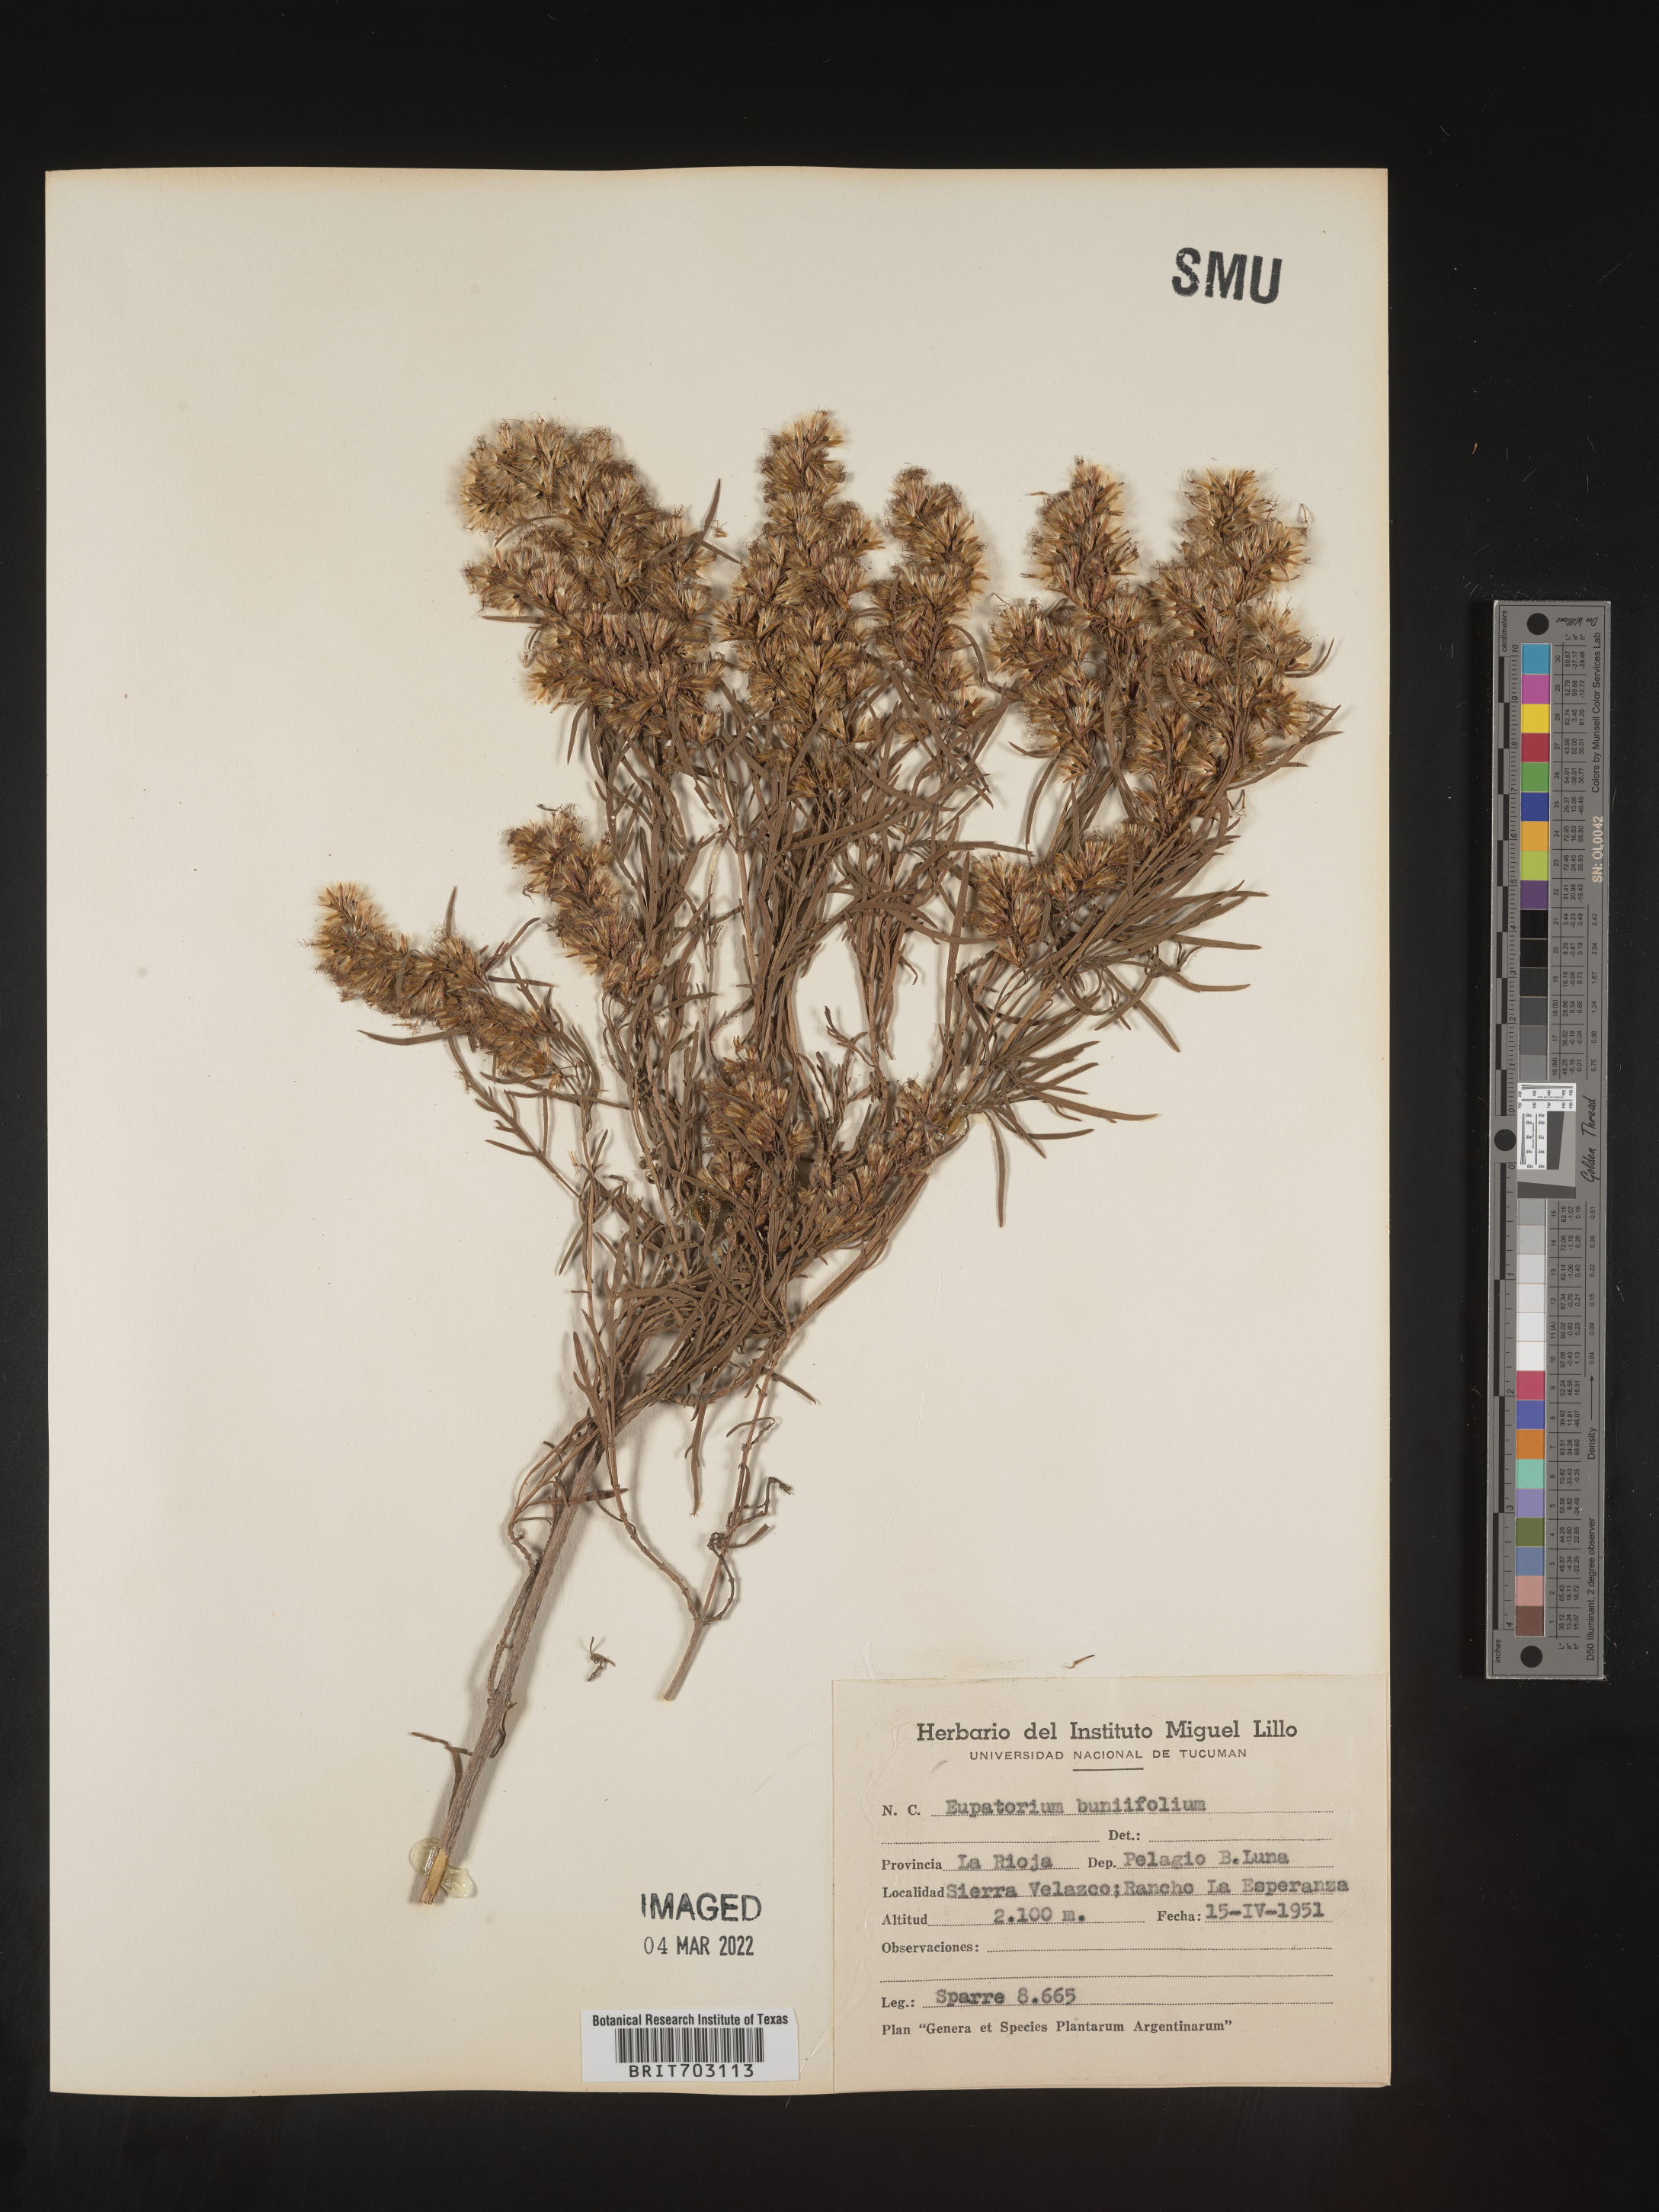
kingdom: Plantae
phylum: Tracheophyta
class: Magnoliopsida
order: Asterales
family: Asteraceae
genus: Eupatorium
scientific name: Eupatorium
